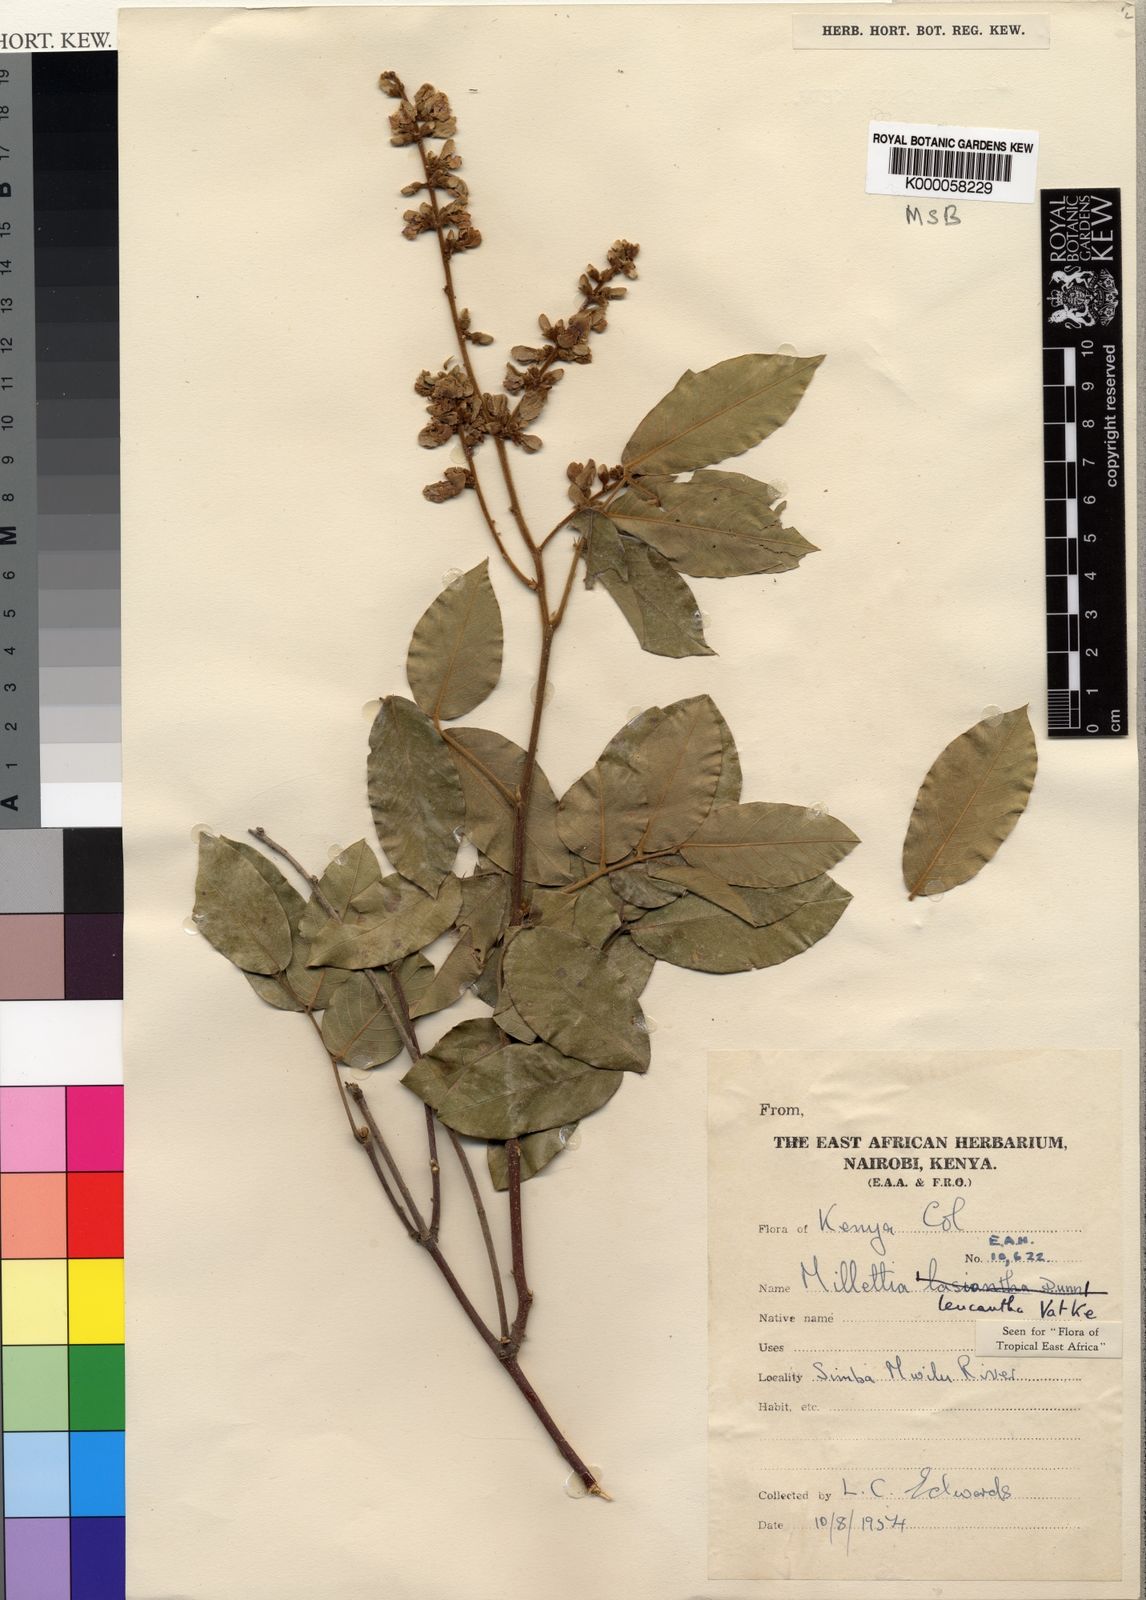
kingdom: Plantae
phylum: Tracheophyta
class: Magnoliopsida
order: Fabales
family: Fabaceae
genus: Millettia
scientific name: Millettia vatkei
